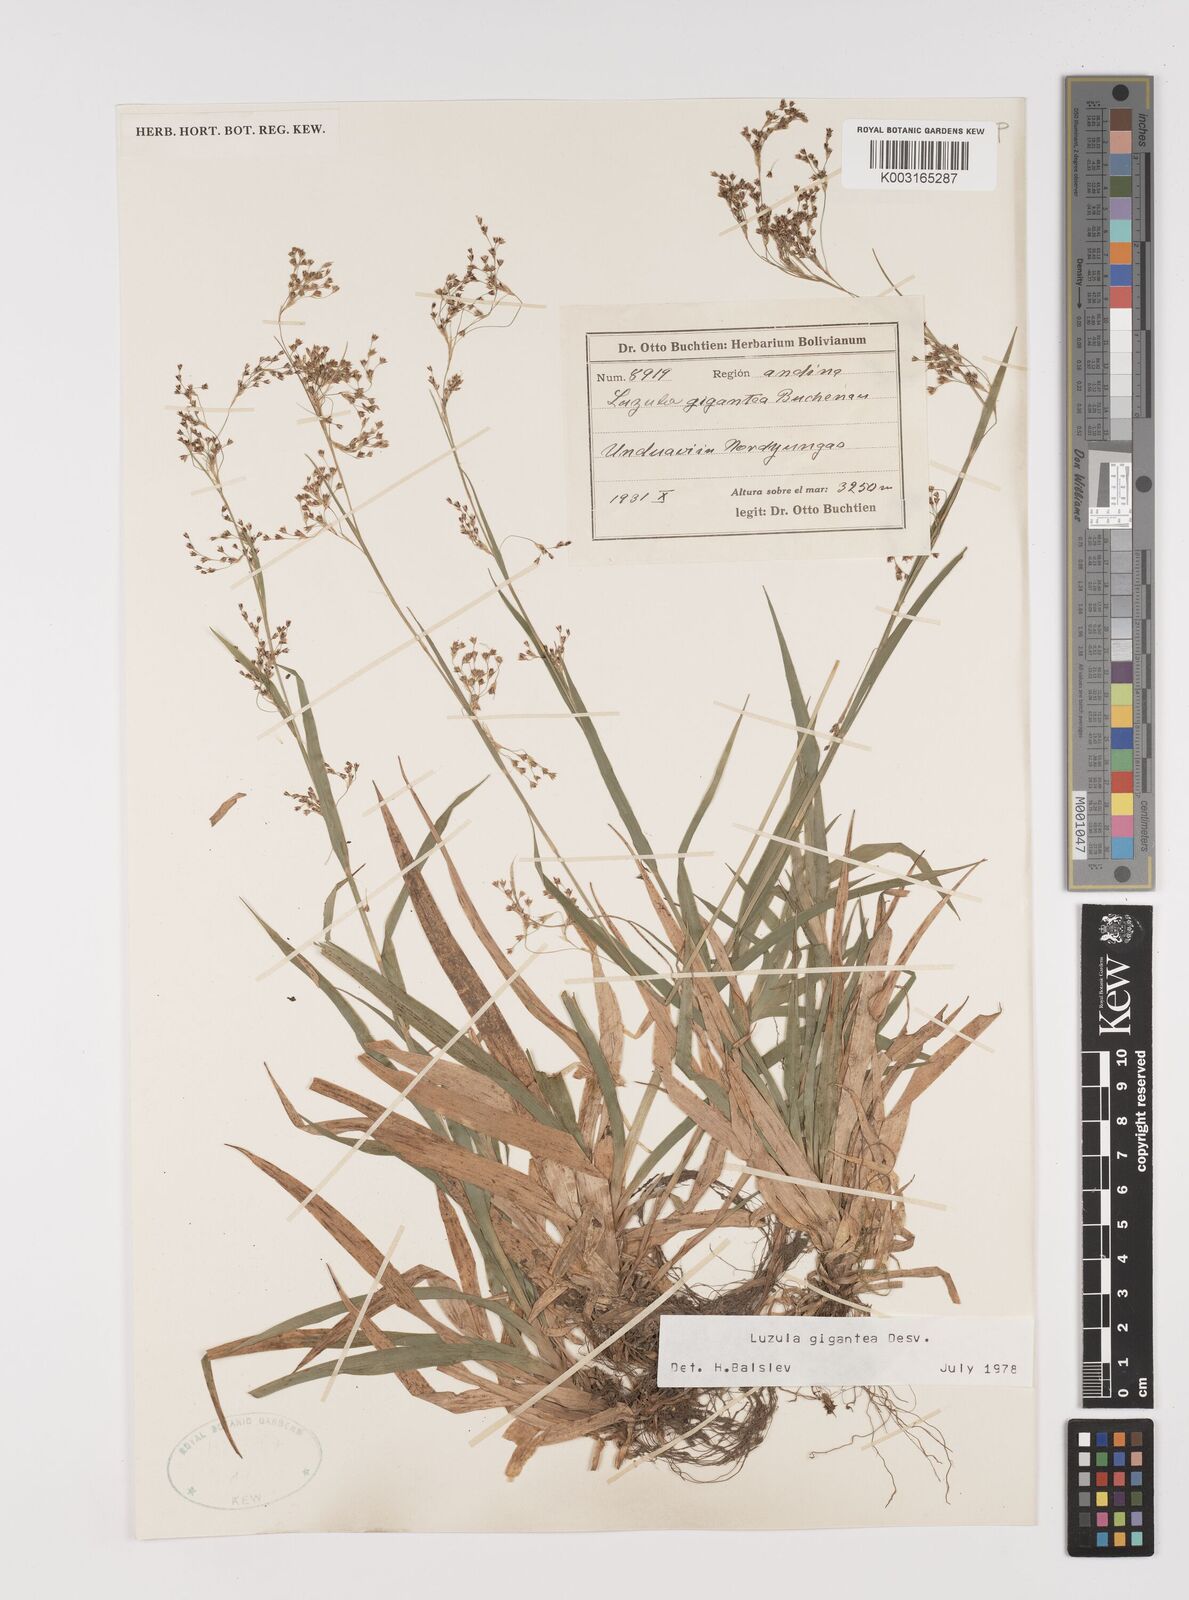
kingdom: Plantae
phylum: Tracheophyta
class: Liliopsida
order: Poales
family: Juncaceae
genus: Luzula
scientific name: Luzula gigantea
